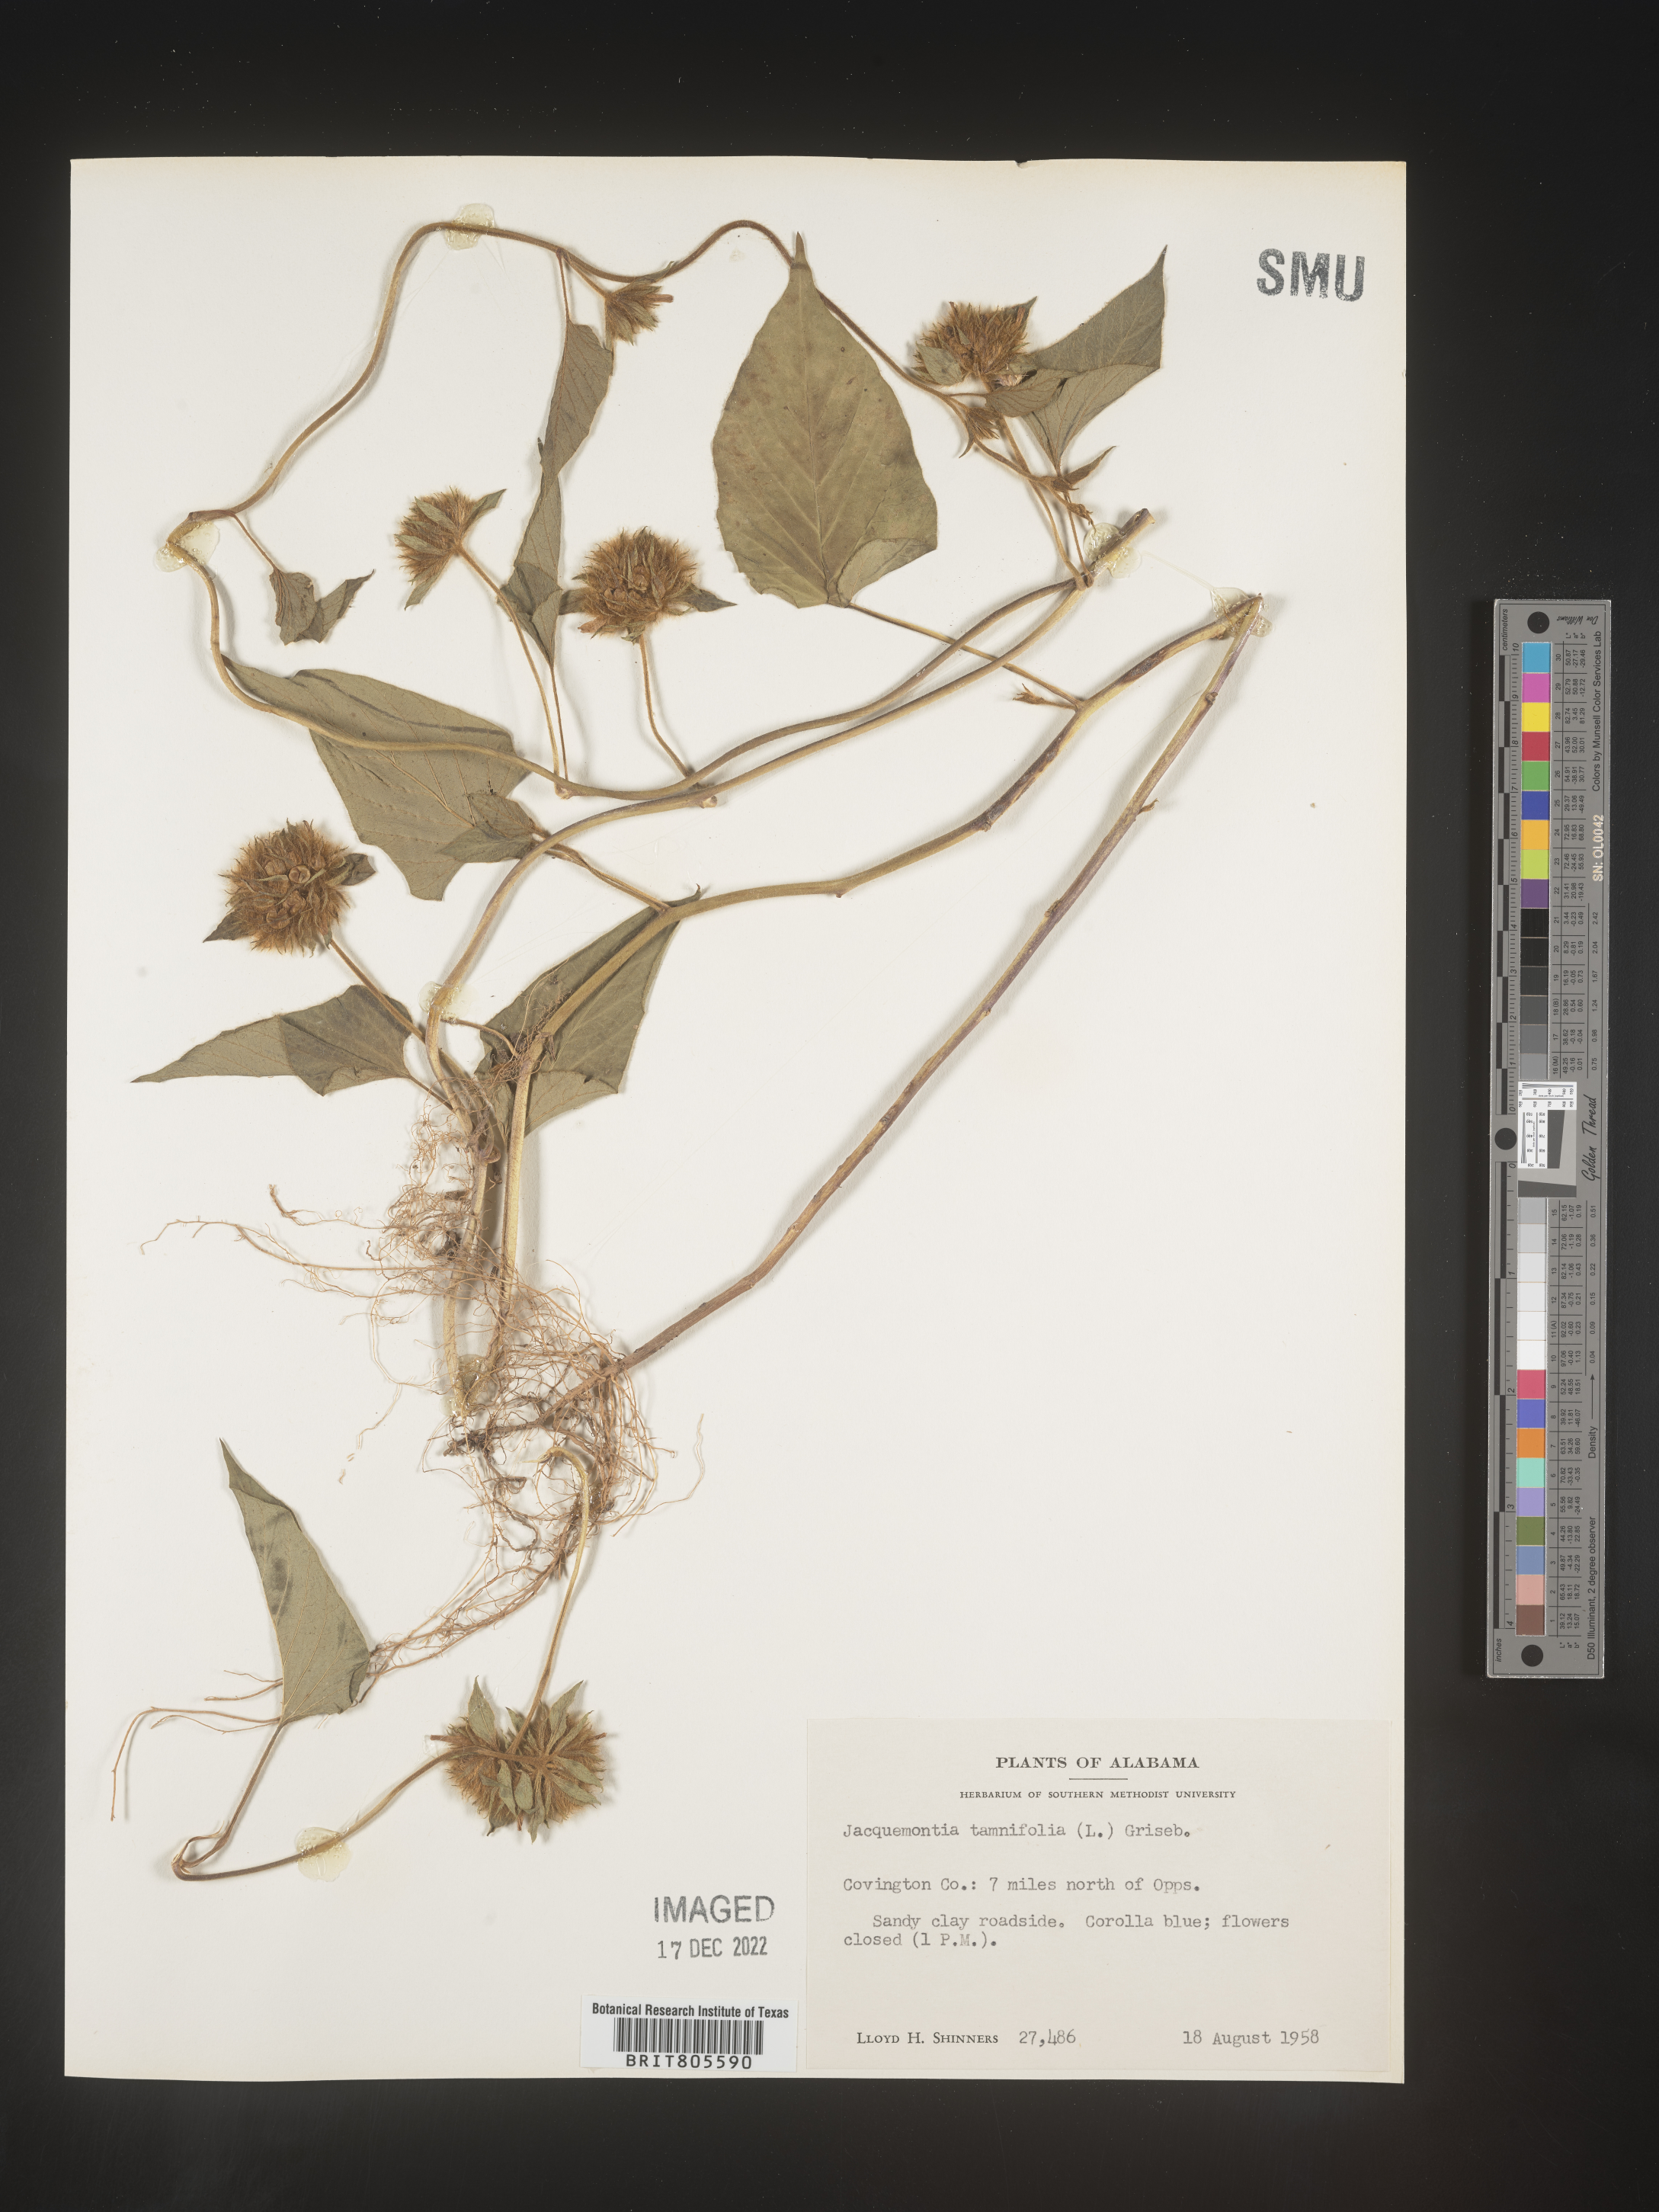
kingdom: Plantae
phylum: Tracheophyta
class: Magnoliopsida
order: Solanales
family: Convolvulaceae
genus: Jacquemontia
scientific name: Jacquemontia tamnifolia
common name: Hairy clustervine
